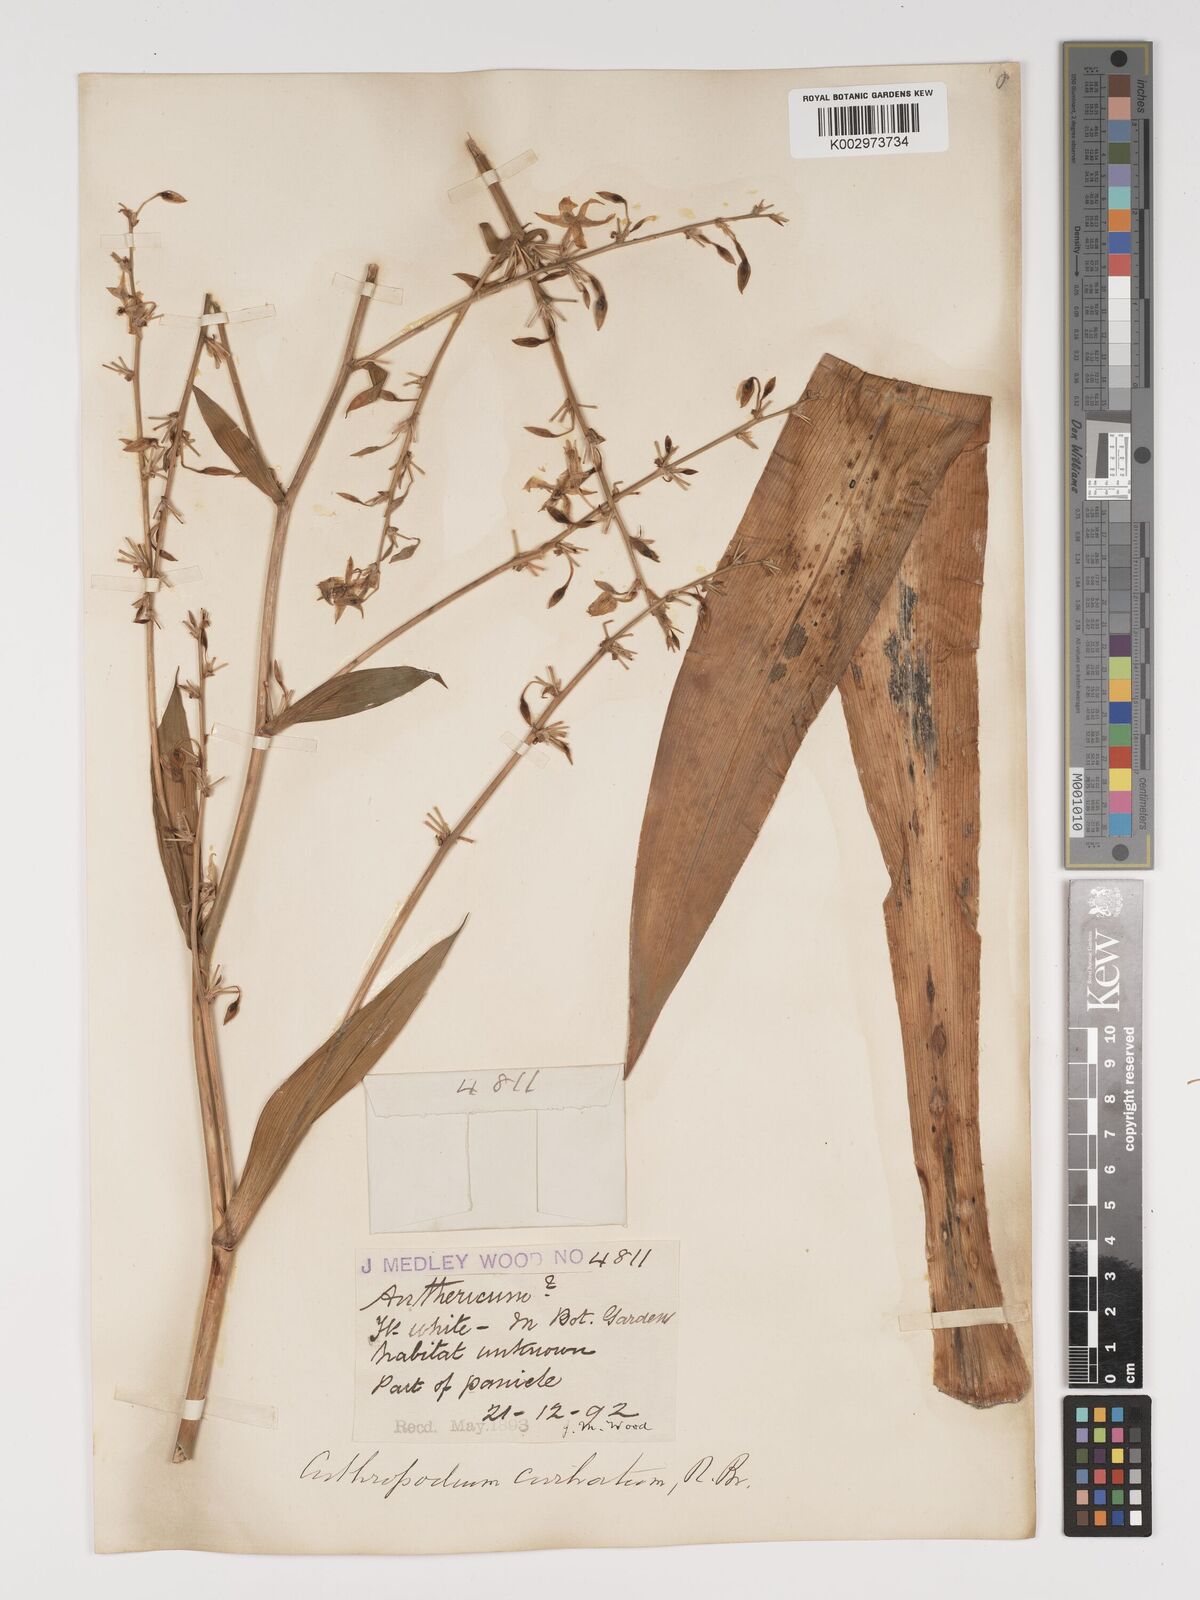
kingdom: Plantae
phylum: Tracheophyta
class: Liliopsida
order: Asparagales
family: Asparagaceae
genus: Arthropodium
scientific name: Arthropodium cirratum
